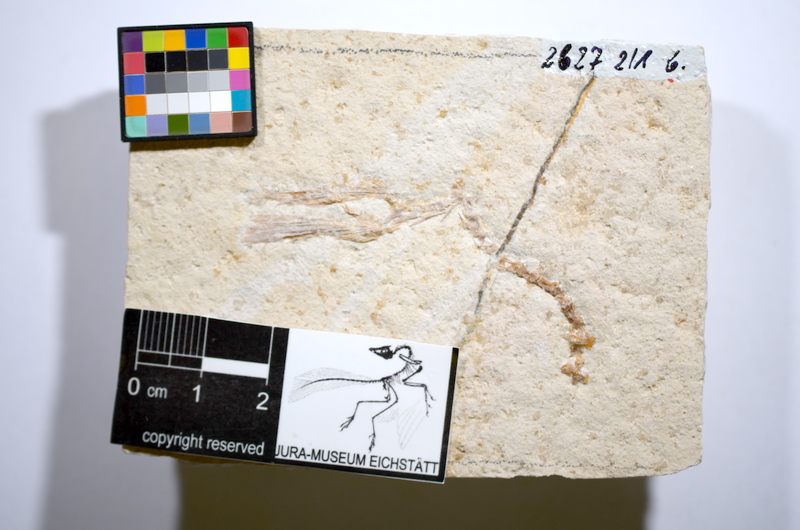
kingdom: Animalia
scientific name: Animalia
